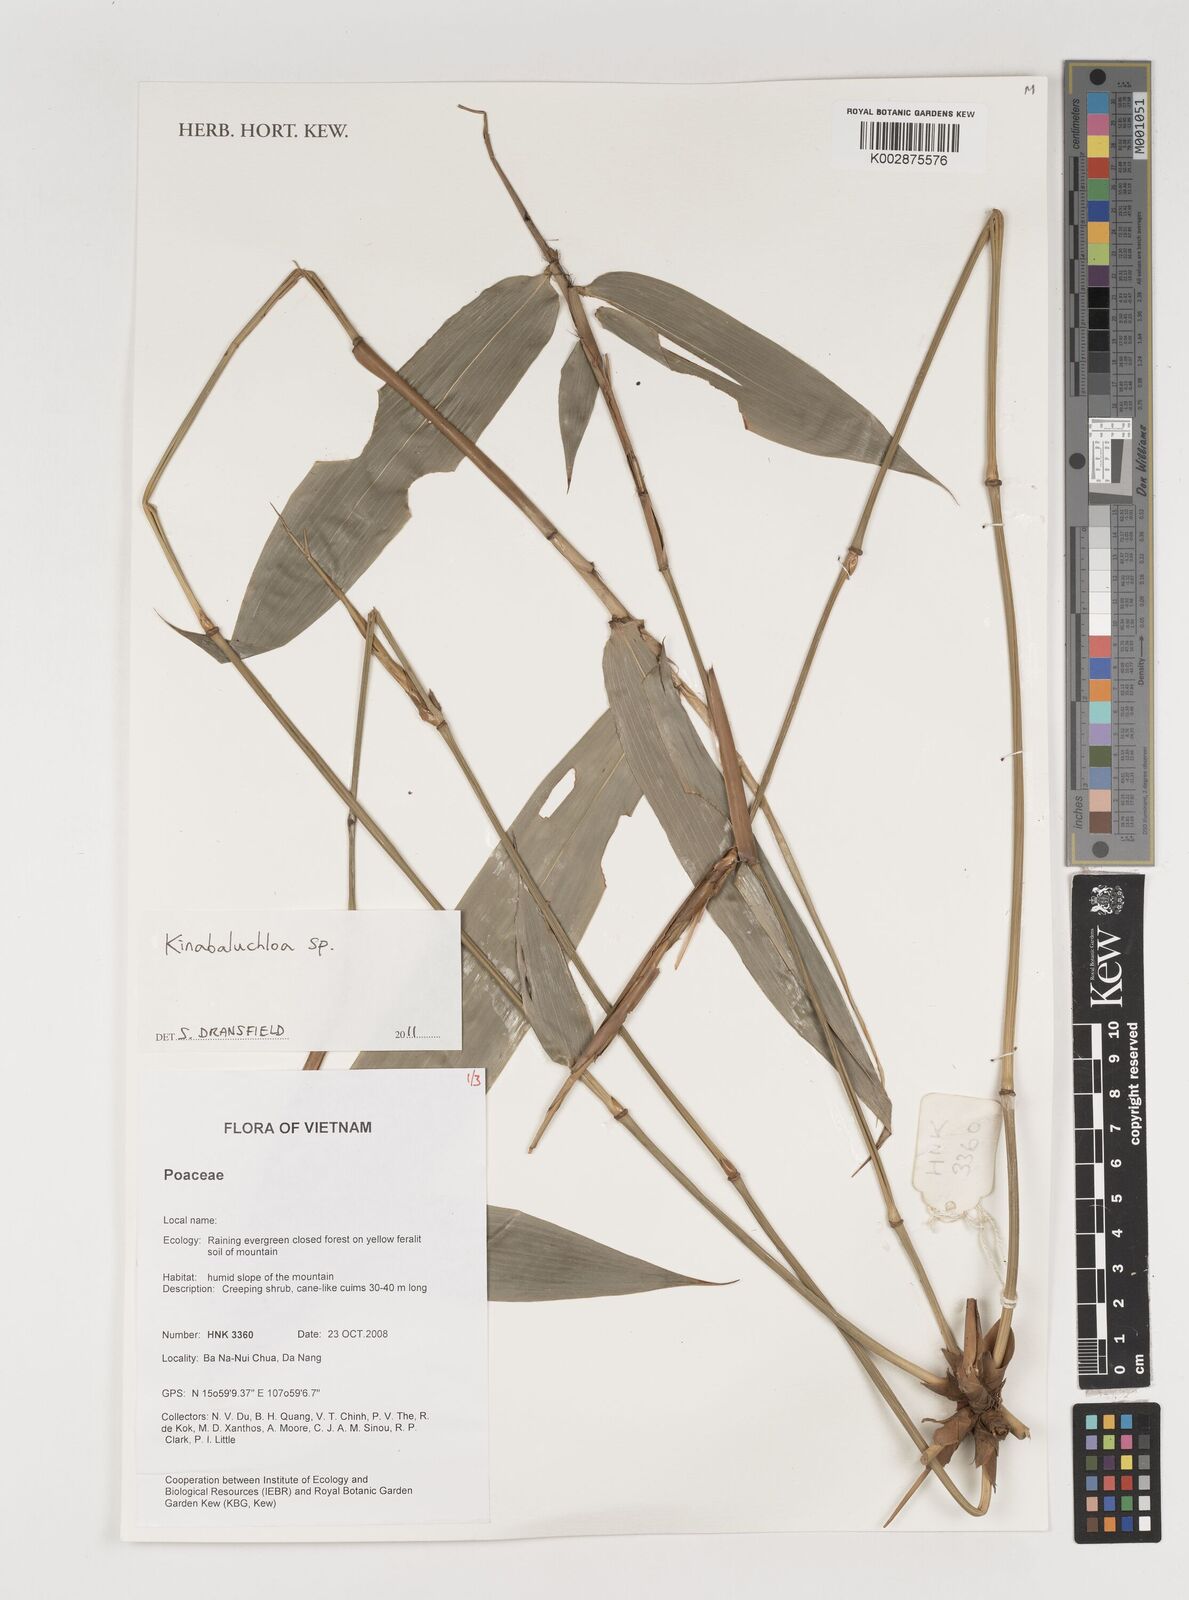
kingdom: Plantae
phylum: Tracheophyta
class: Liliopsida
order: Poales
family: Poaceae
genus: Kinabaluchloa
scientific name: Kinabaluchloa
